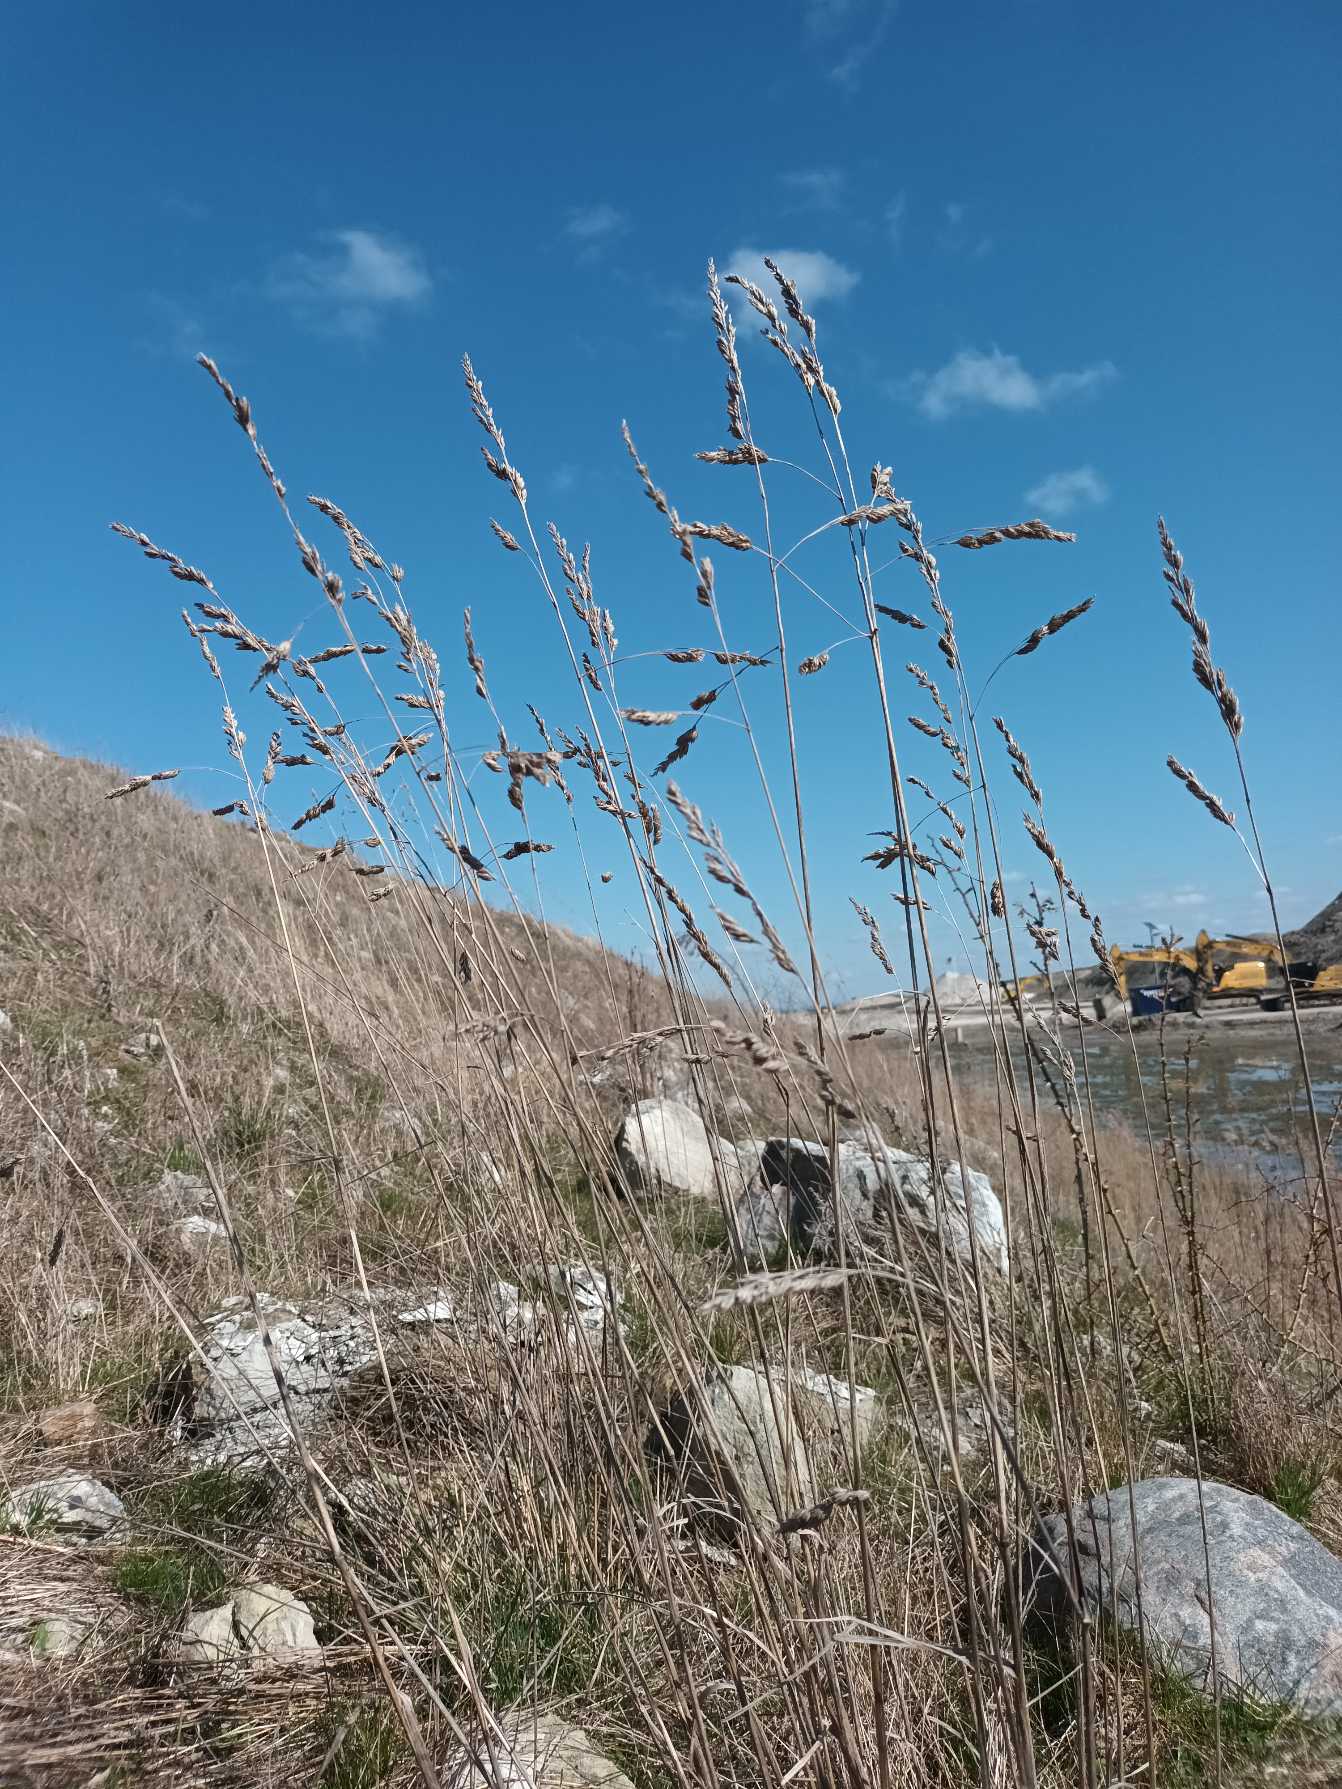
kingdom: Plantae
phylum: Tracheophyta
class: Liliopsida
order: Poales
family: Poaceae
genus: Dactylis
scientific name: Dactylis glomerata
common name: Almindelig hundegræs
